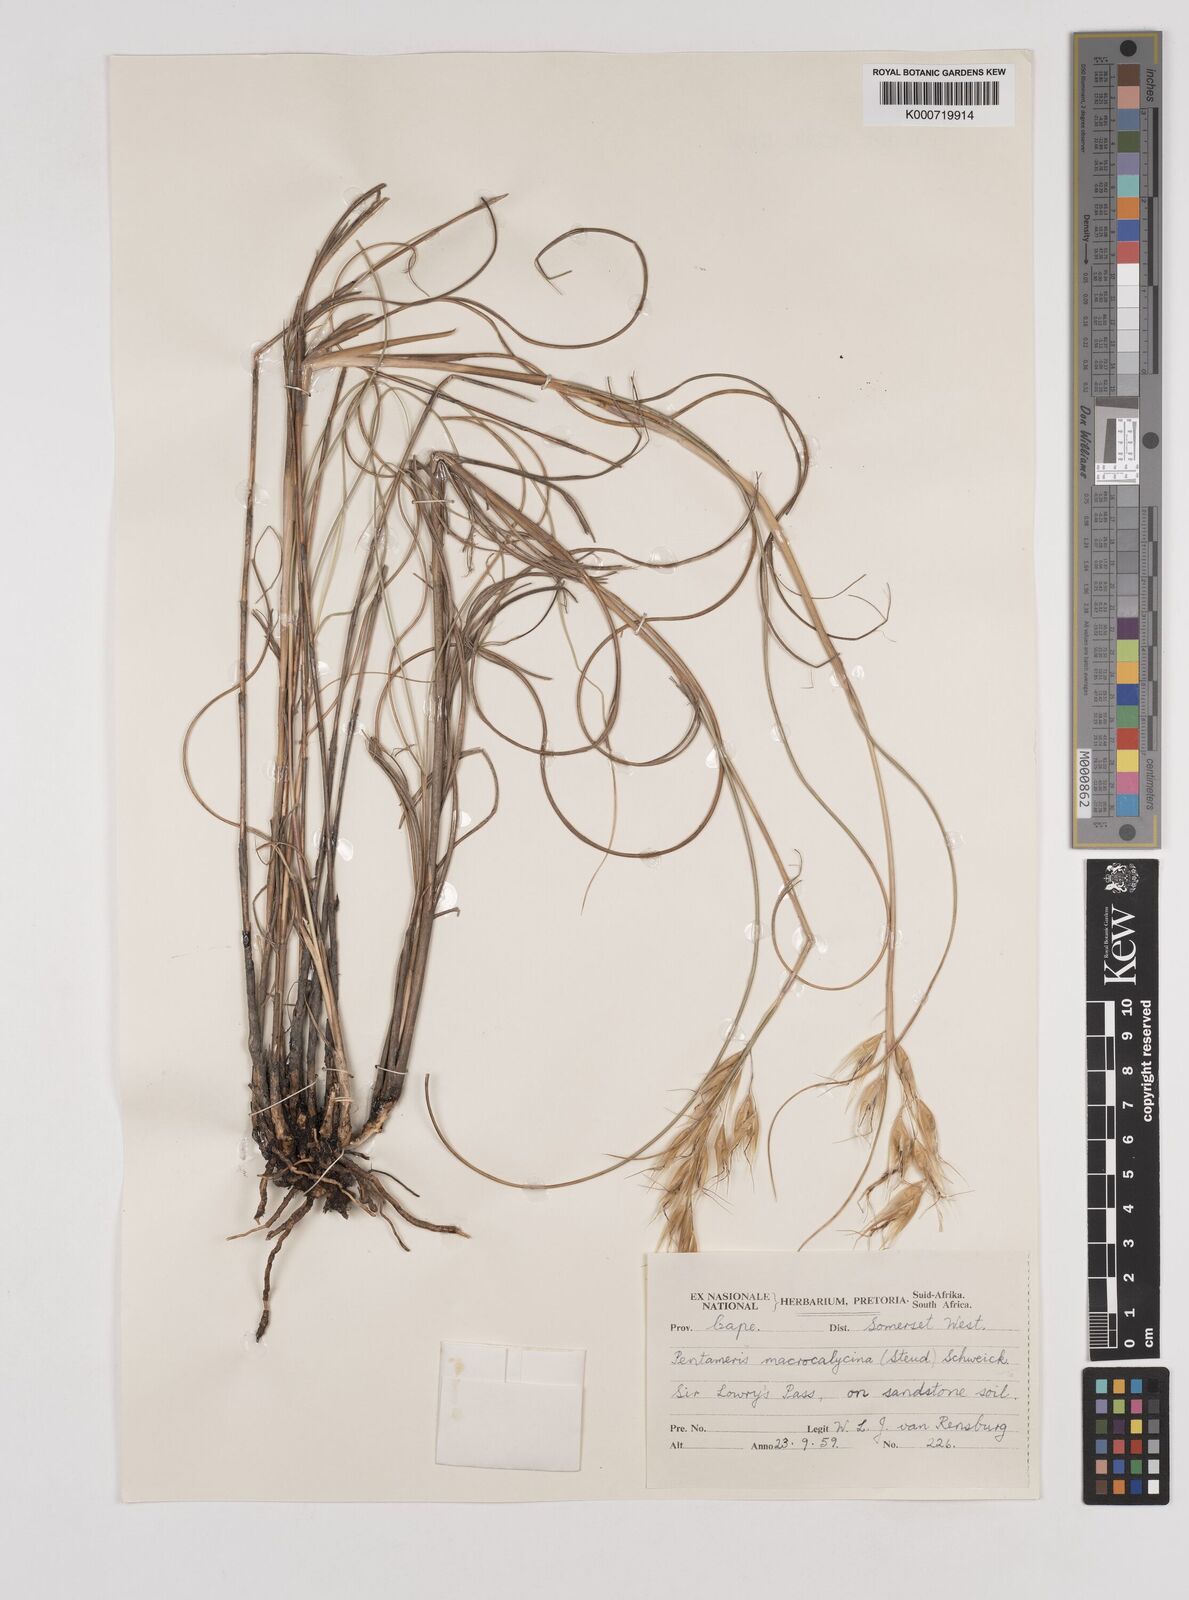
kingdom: Plantae
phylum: Tracheophyta
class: Liliopsida
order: Poales
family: Poaceae
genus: Pentameris
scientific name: Pentameris macrocalycina
